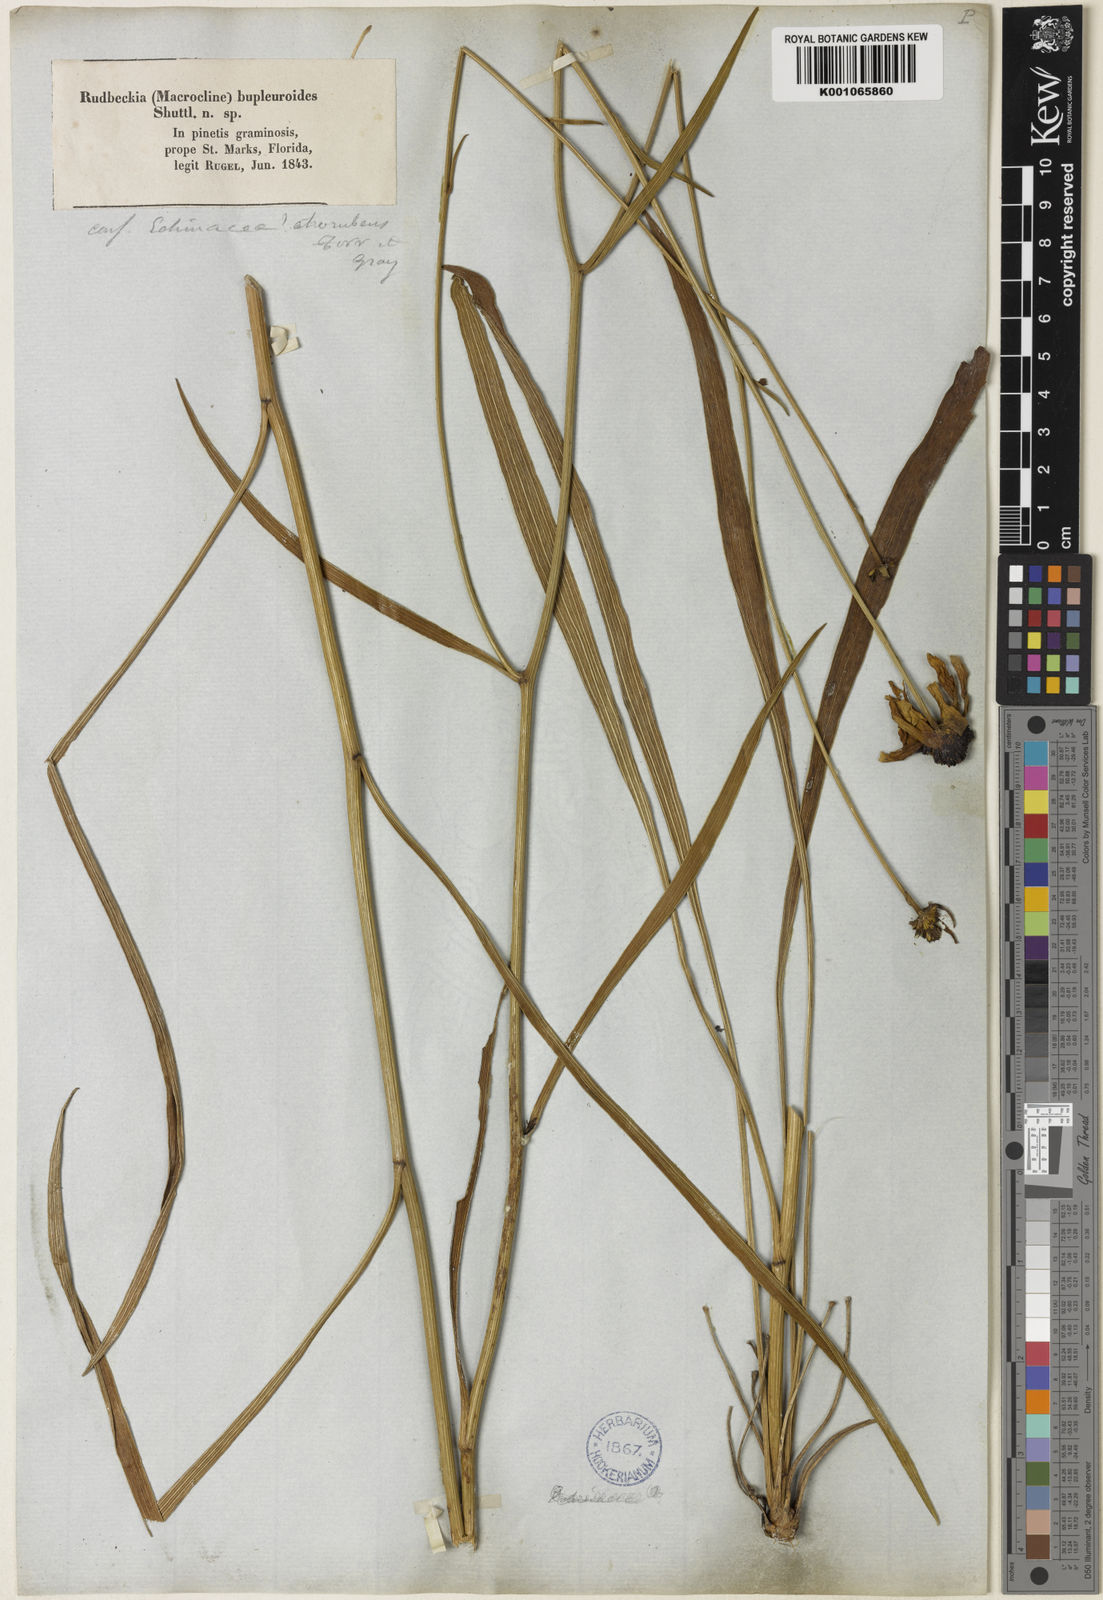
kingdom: Plantae
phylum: Tracheophyta
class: Magnoliopsida
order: Asterales
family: Asteraceae
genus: Rudbeckia
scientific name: Rudbeckia mohrii
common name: Grassy coneflower
